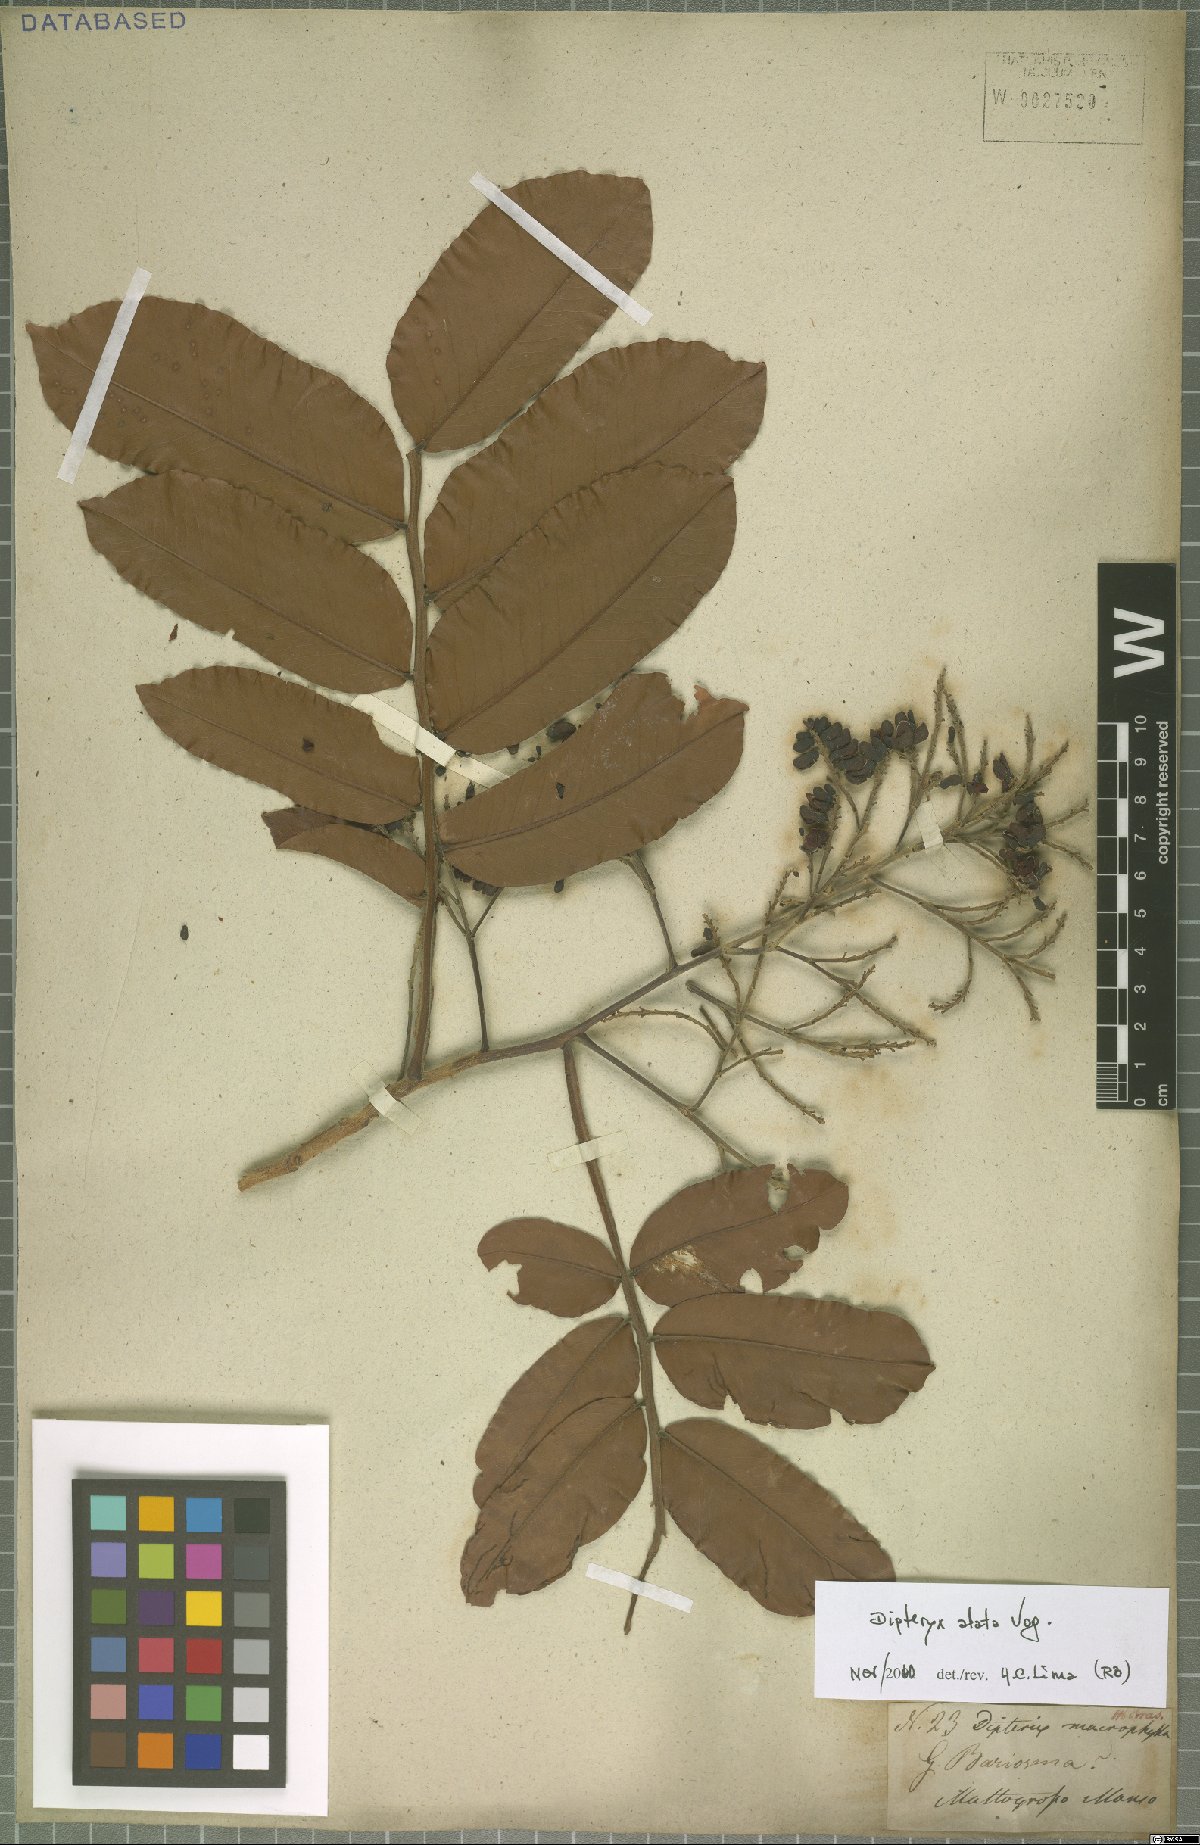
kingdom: Plantae
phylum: Tracheophyta
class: Magnoliopsida
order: Fabales
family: Fabaceae
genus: Dipteryx
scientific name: Dipteryx alata
